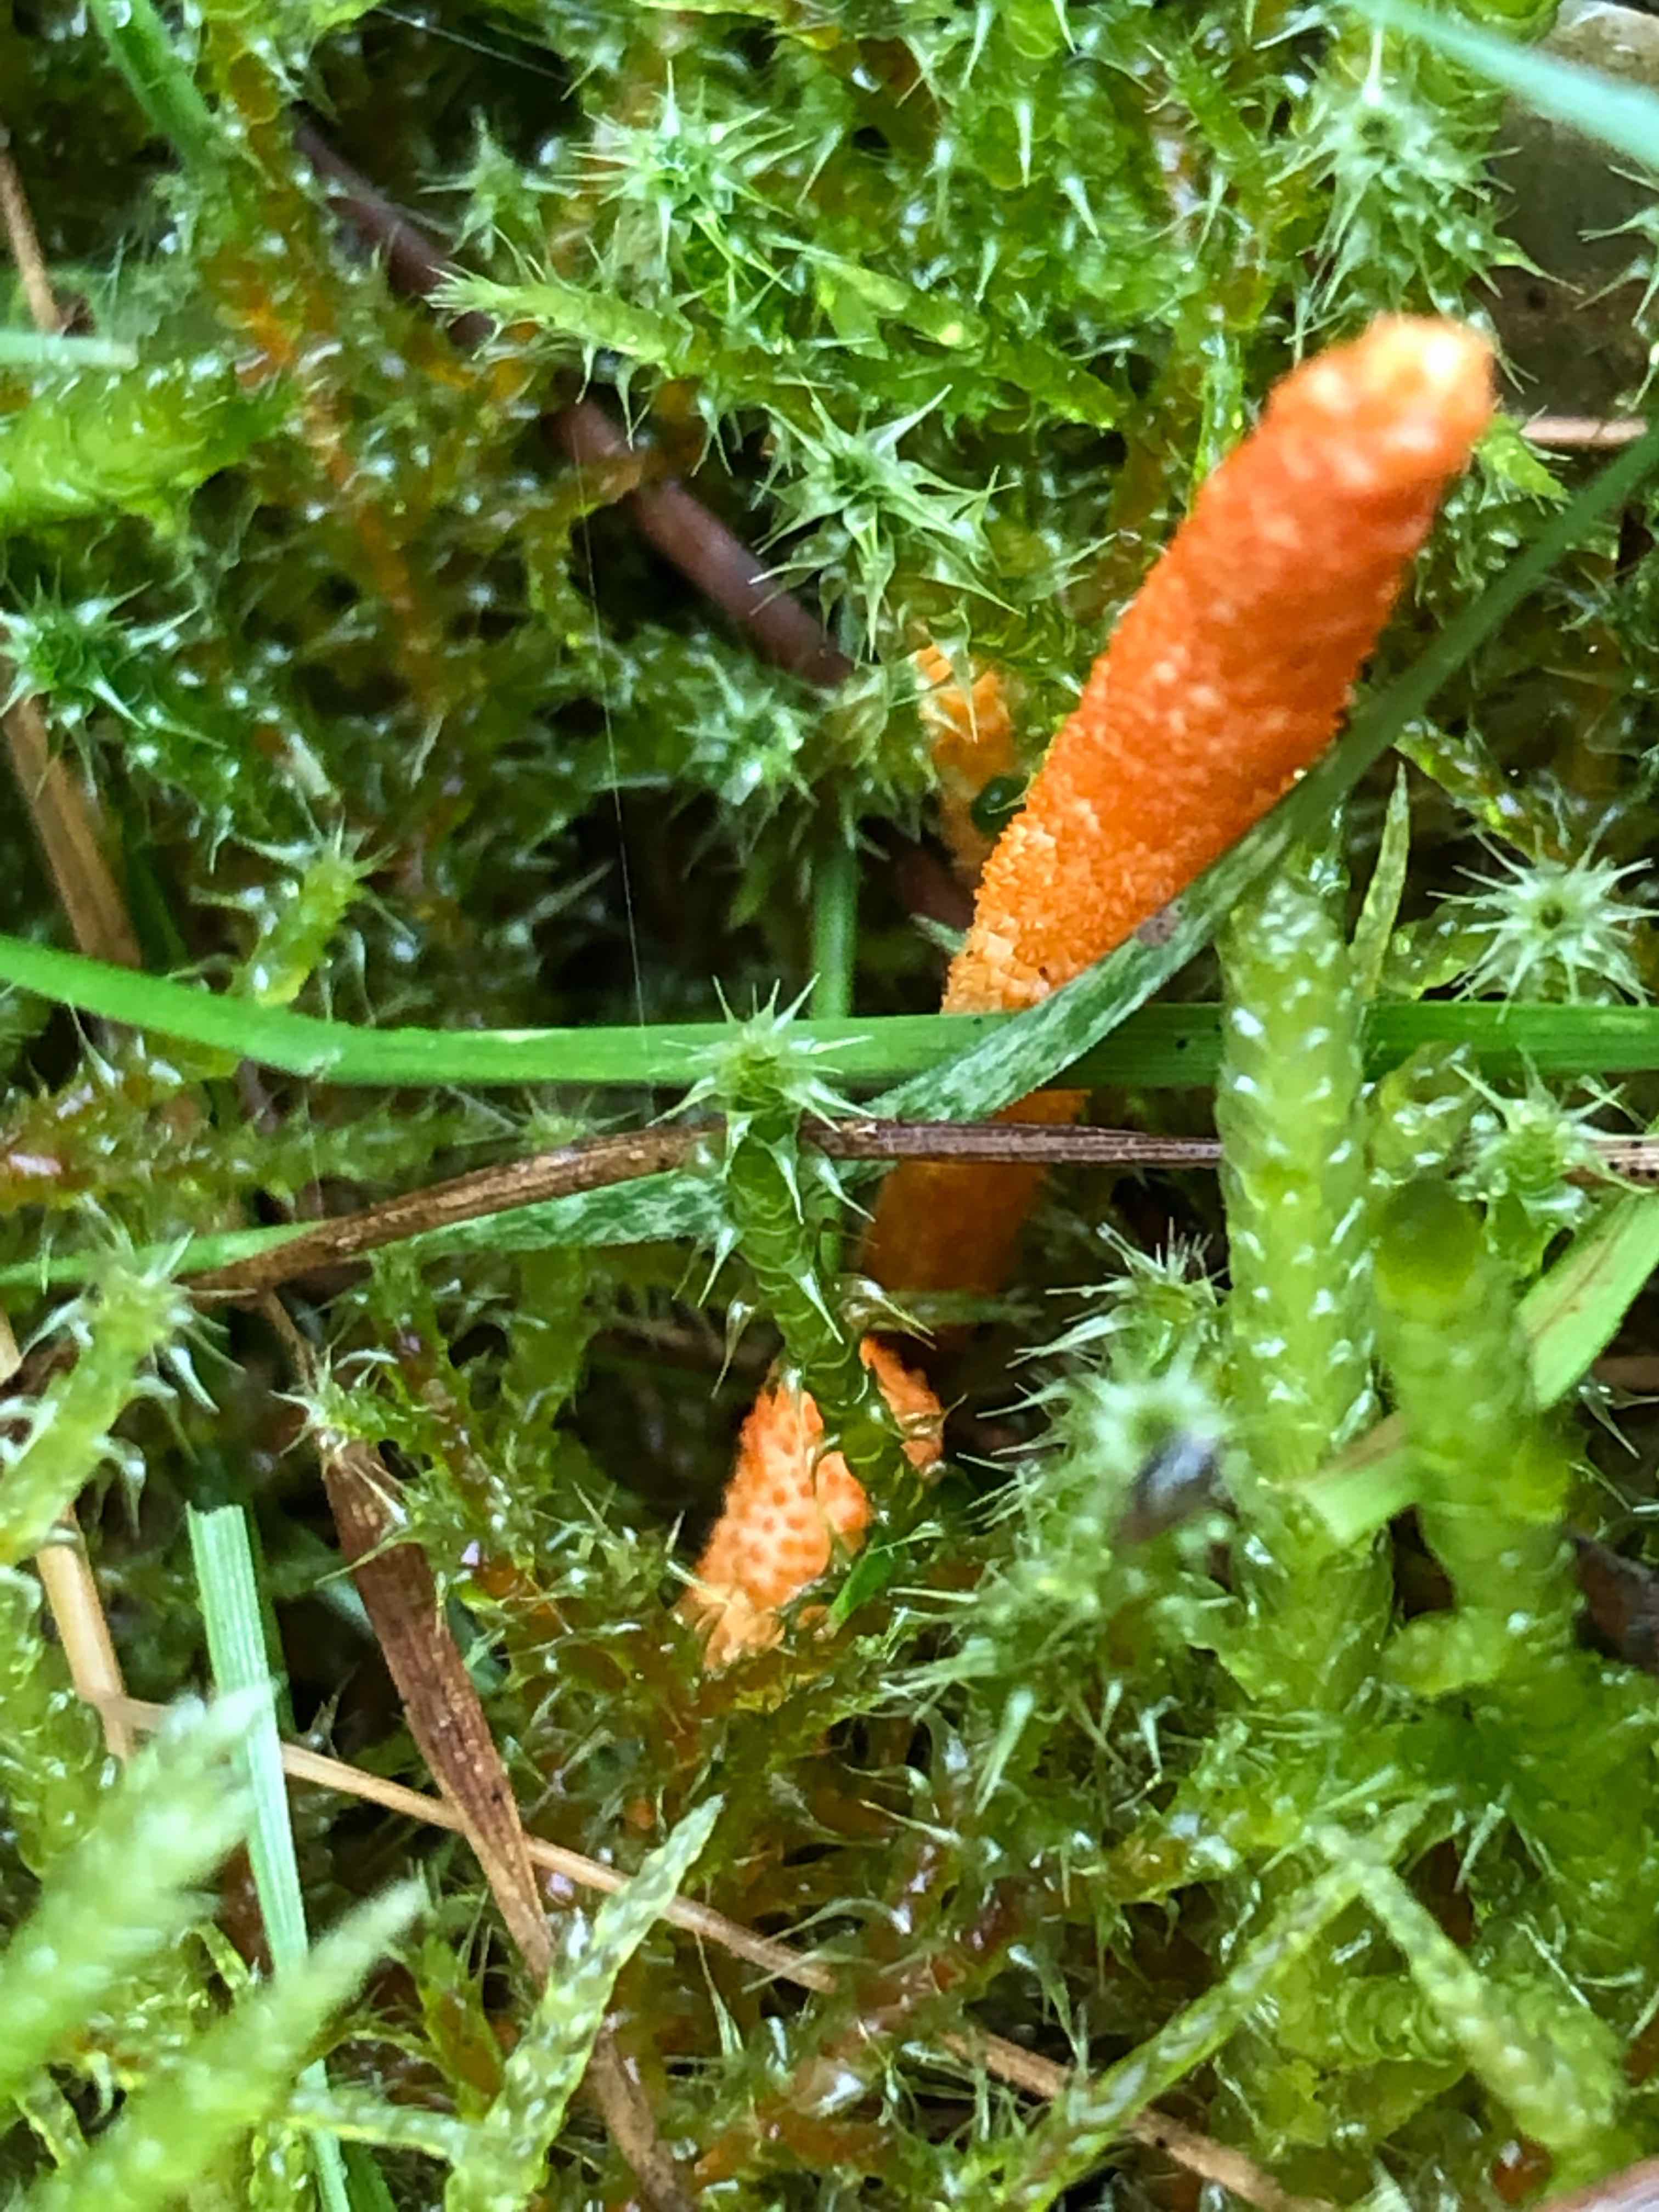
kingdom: Fungi
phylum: Ascomycota
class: Sordariomycetes
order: Hypocreales
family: Cordycipitaceae
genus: Cordyceps
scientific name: Cordyceps militaris
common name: puppe-snyltekølle
